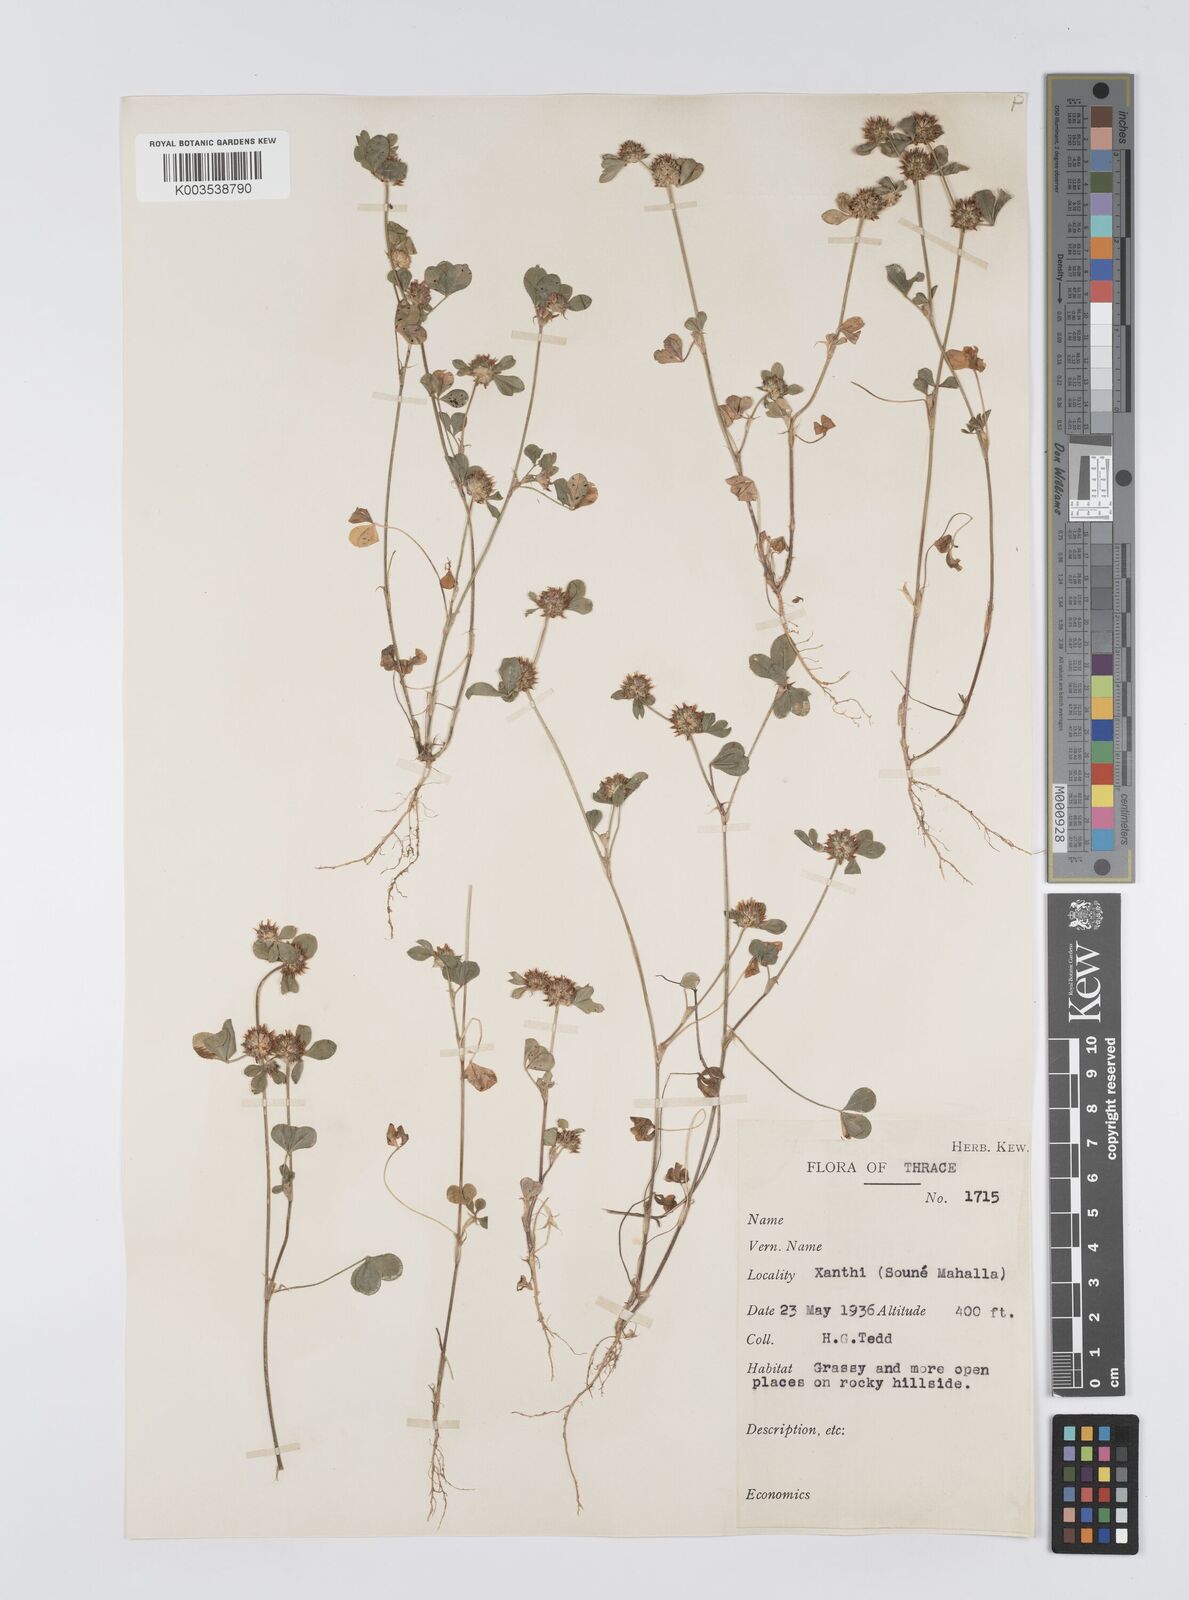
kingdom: Plantae
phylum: Tracheophyta
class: Magnoliopsida
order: Fabales
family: Fabaceae
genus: Trifolium
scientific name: Trifolium glomeratum
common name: Clustered clover
